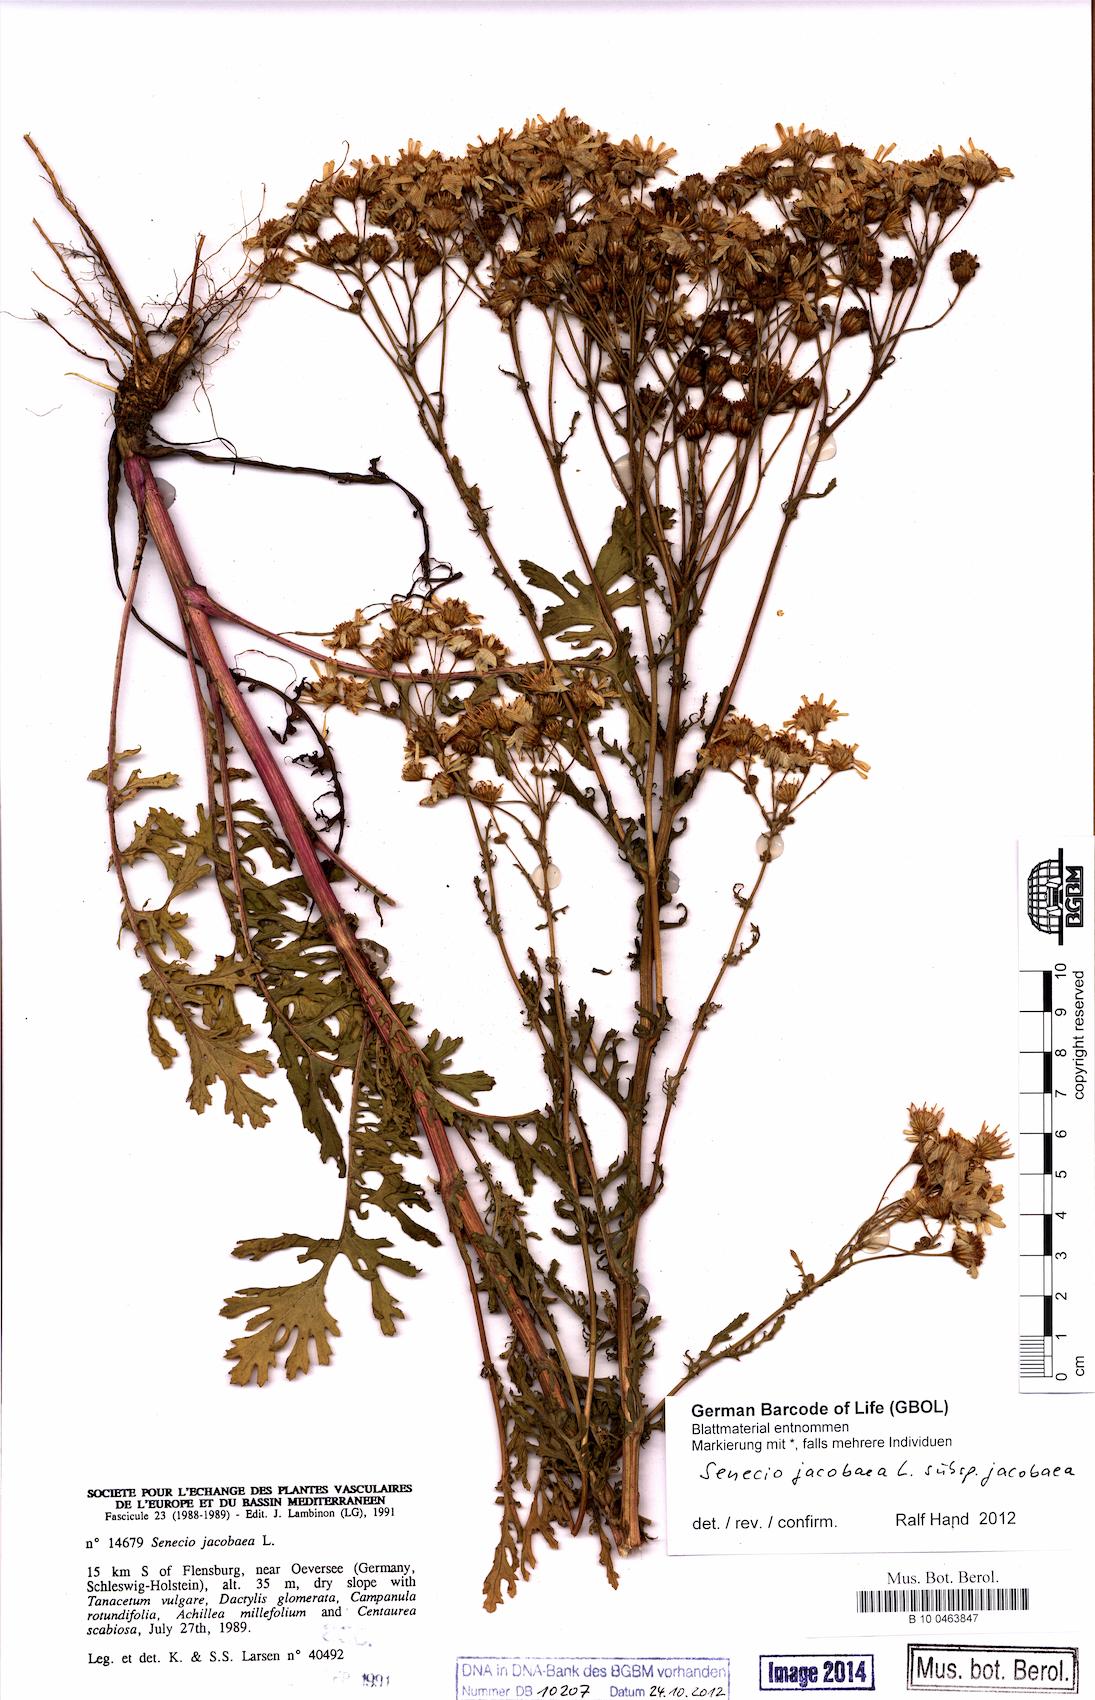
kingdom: Plantae
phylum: Tracheophyta
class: Magnoliopsida
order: Asterales
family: Asteraceae
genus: Jacobaea
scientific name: Jacobaea vulgaris
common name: Stinking willie
